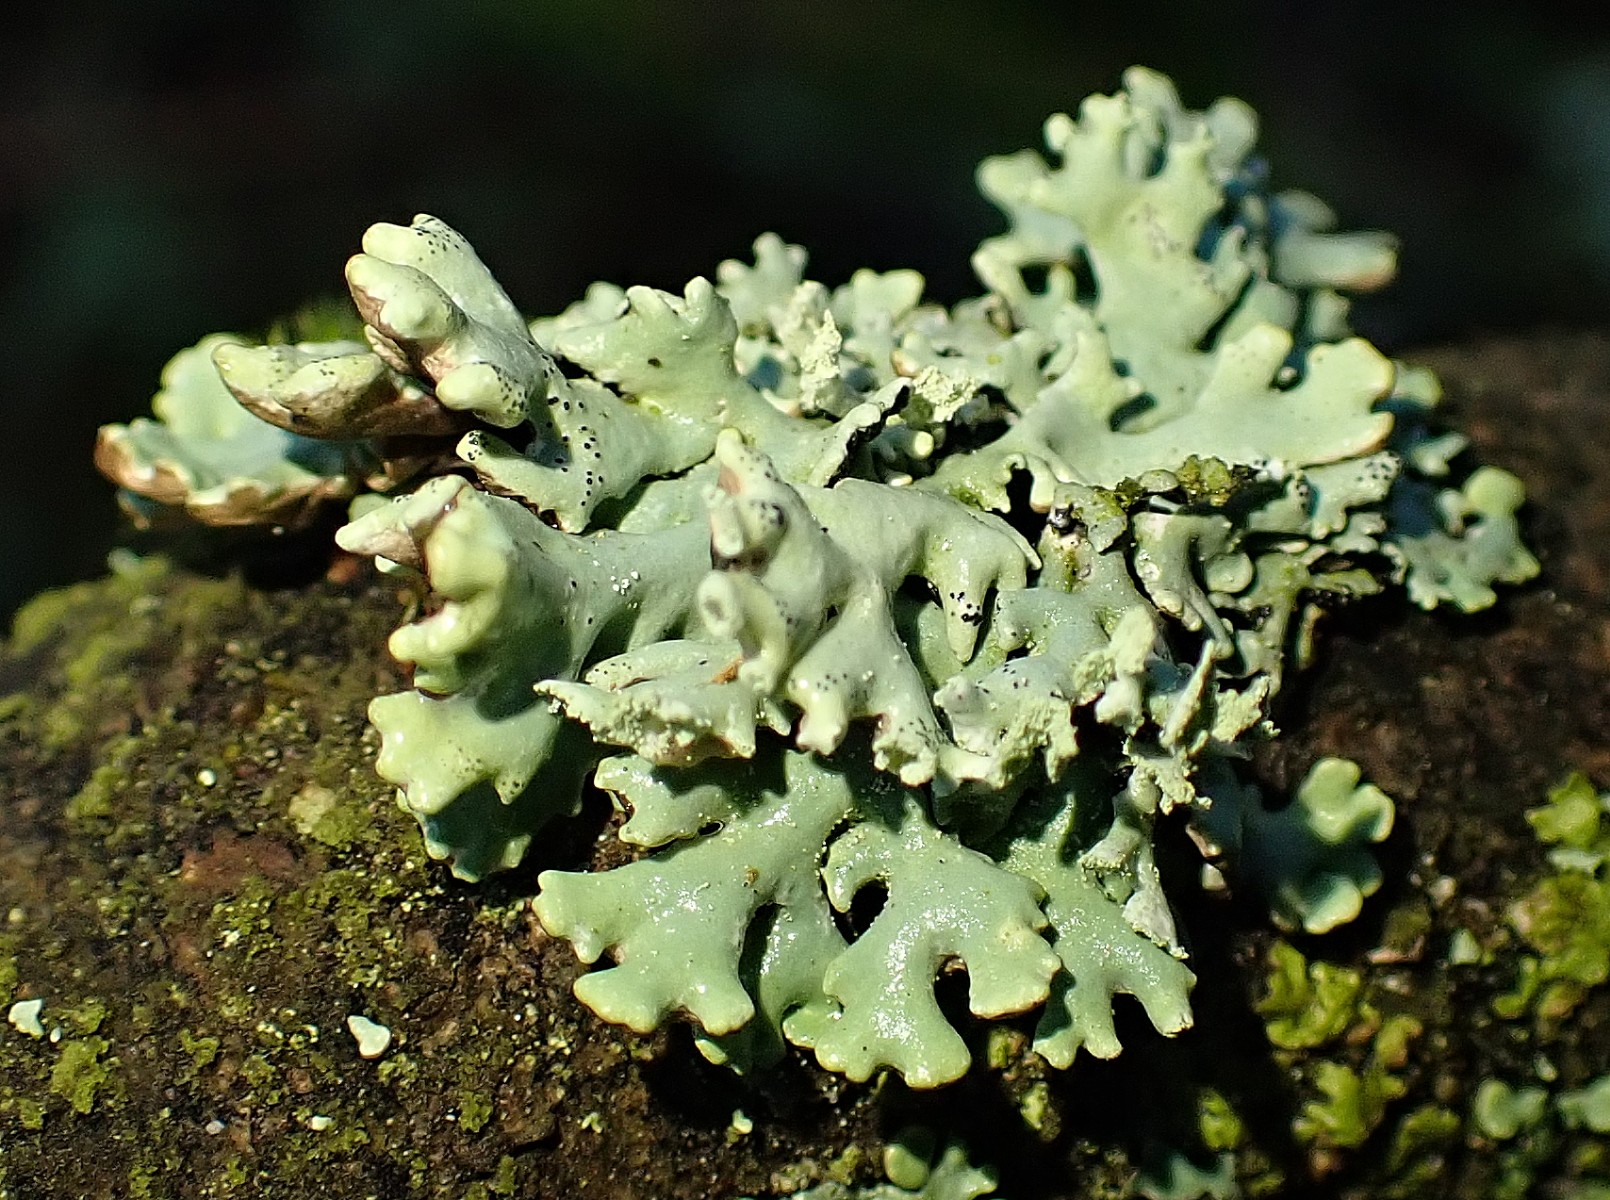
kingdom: Fungi
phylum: Ascomycota
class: Lecanoromycetes
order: Lecanorales
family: Parmeliaceae
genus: Hypogymnia
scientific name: Hypogymnia physodes
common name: almindelig kvistlav
